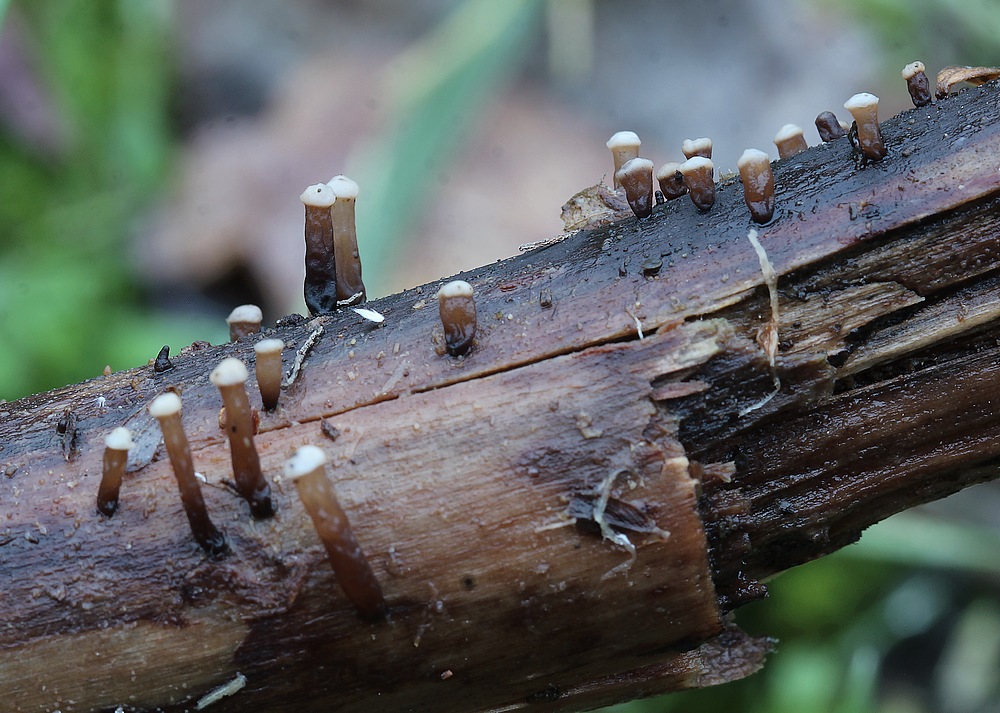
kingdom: Fungi
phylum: Ascomycota
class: Leotiomycetes
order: Helotiales
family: Gelatinodiscaceae
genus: Ascocoryne
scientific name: Ascocoryne albida
